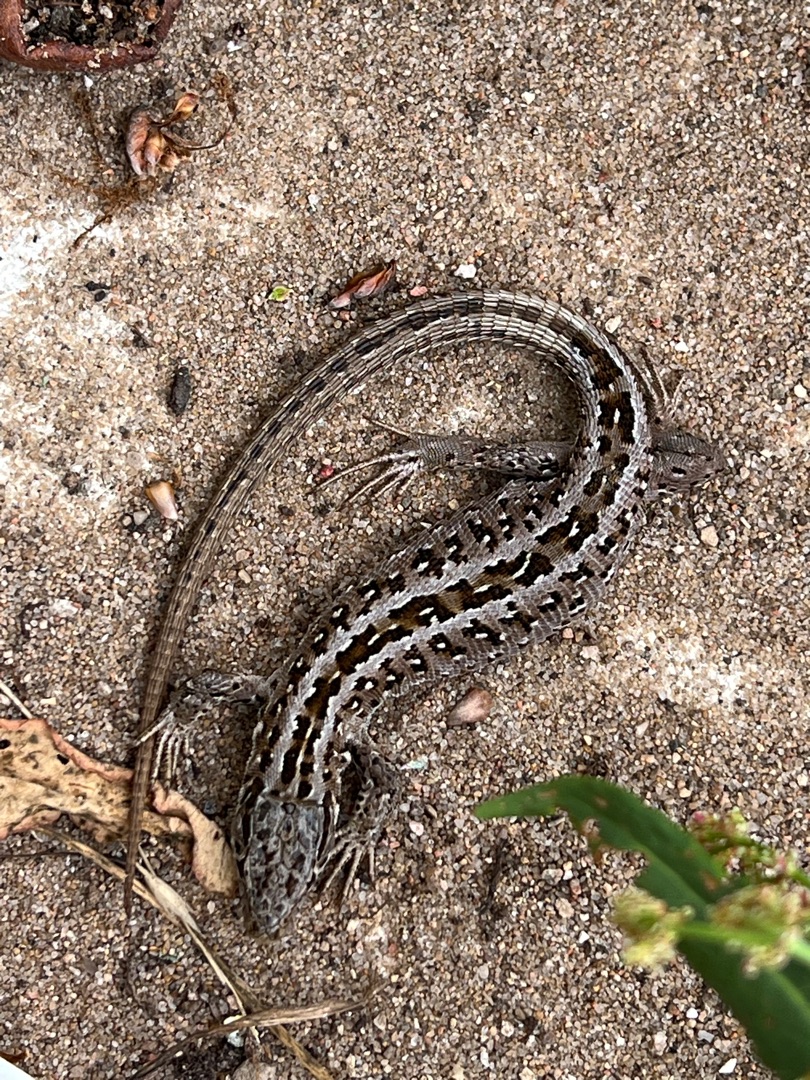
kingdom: Animalia
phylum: Chordata
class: Squamata
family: Lacertidae
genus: Lacerta
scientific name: Lacerta agilis
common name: Markfirben
